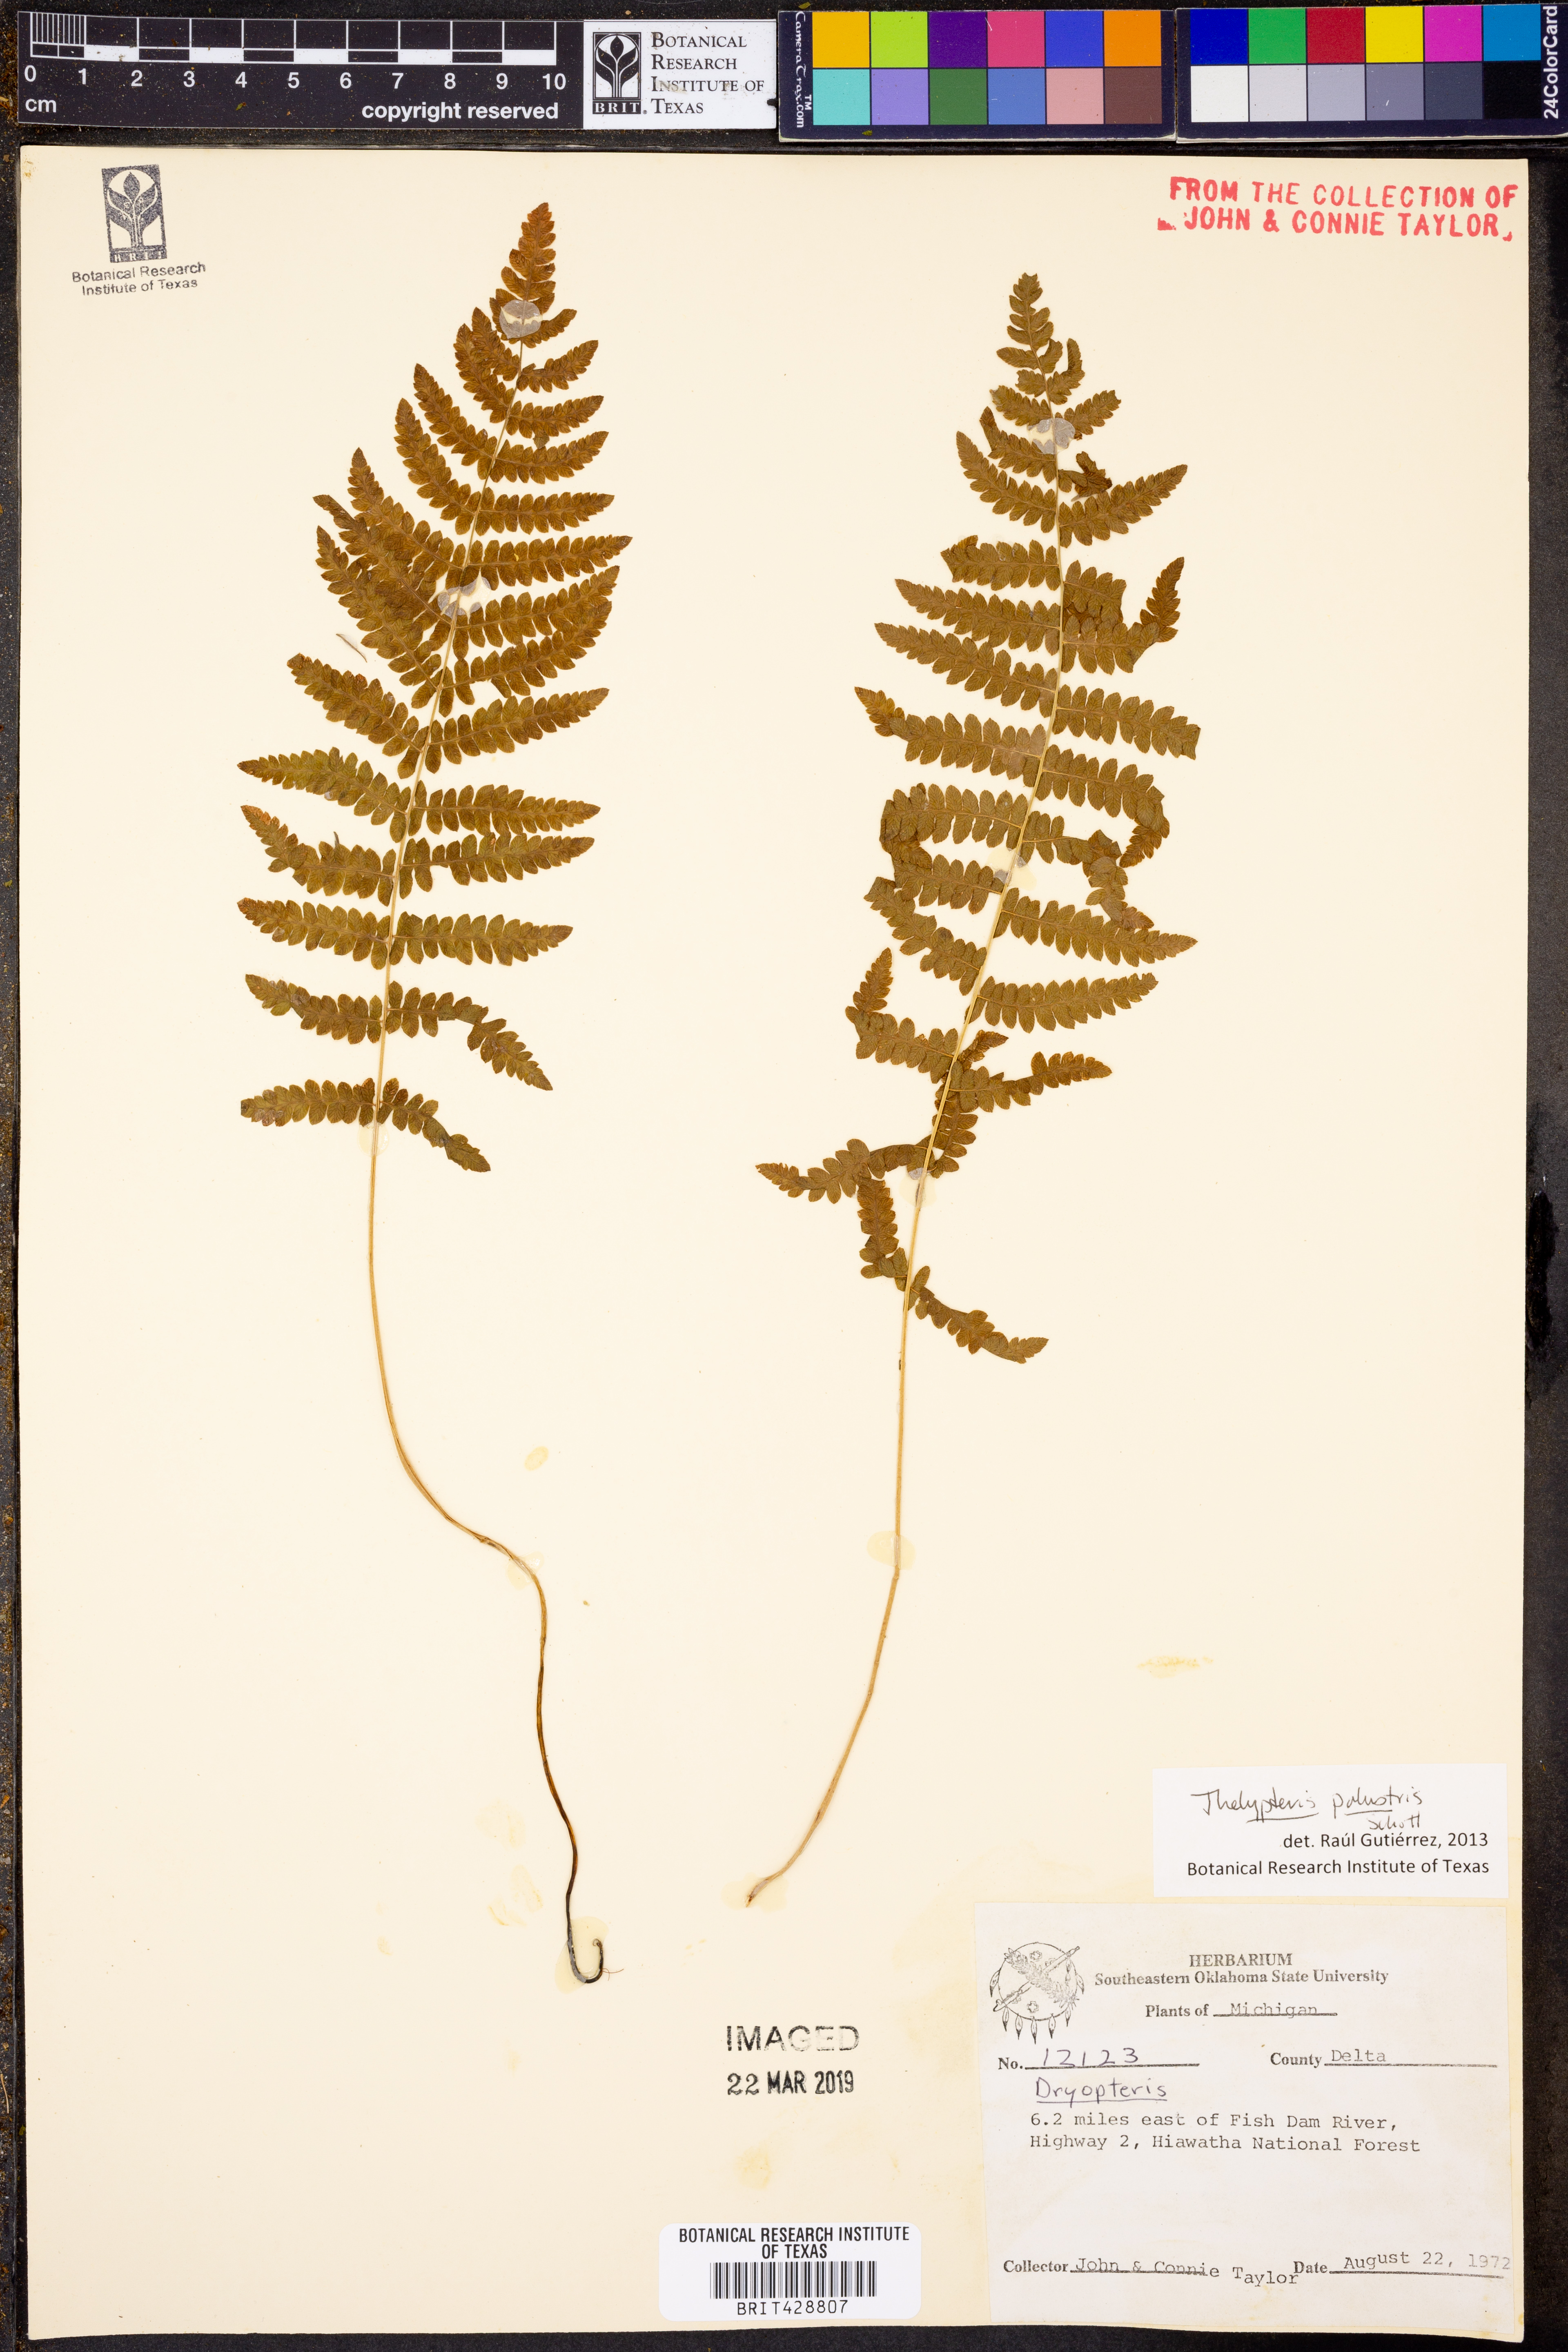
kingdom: Plantae
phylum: Tracheophyta
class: Polypodiopsida
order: Polypodiales
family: Thelypteridaceae
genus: Thelypteris
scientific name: Thelypteris palustris
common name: Marsh fern
